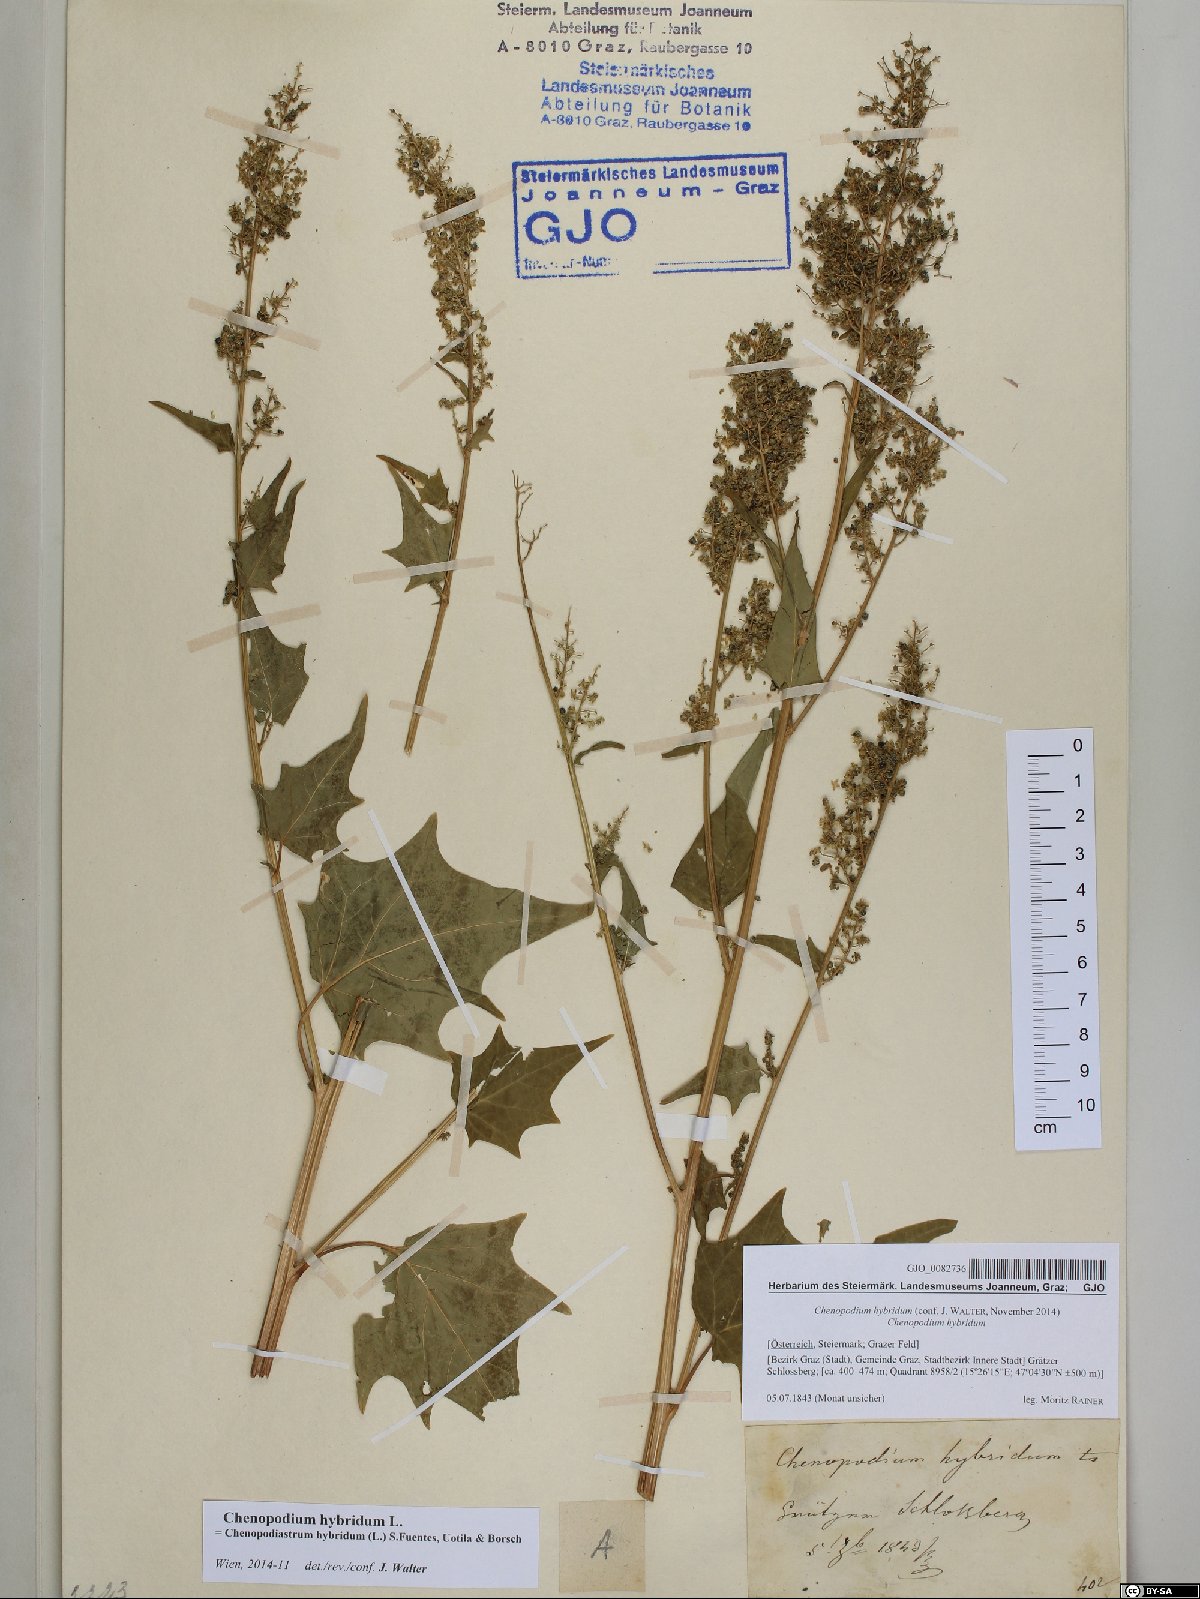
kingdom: Plantae
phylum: Tracheophyta
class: Magnoliopsida
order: Caryophyllales
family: Amaranthaceae
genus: Chenopodiastrum
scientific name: Chenopodiastrum hybridum
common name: Mapleleaf goosefoot
